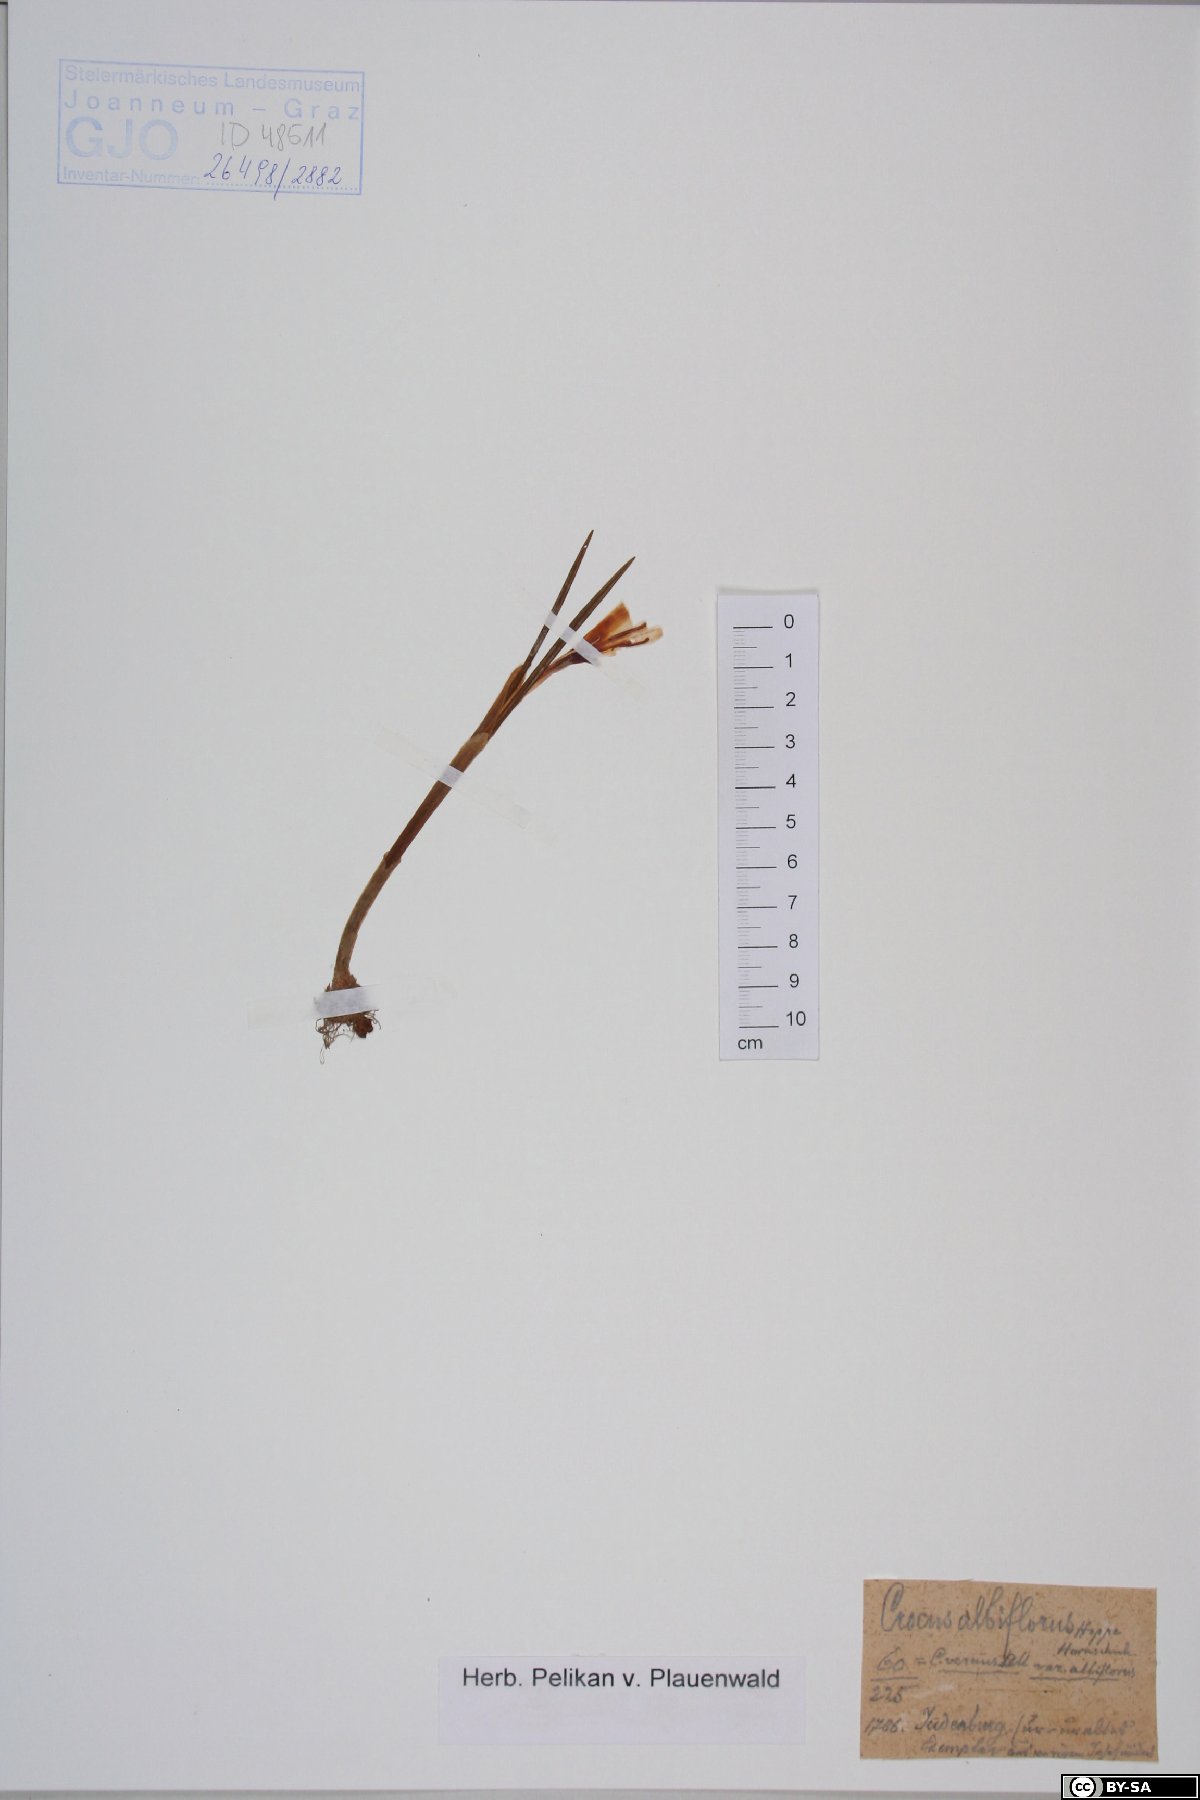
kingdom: Plantae
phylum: Tracheophyta
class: Liliopsida
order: Asparagales
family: Iridaceae
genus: Crocus
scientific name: Crocus vernus
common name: Spring crocus
